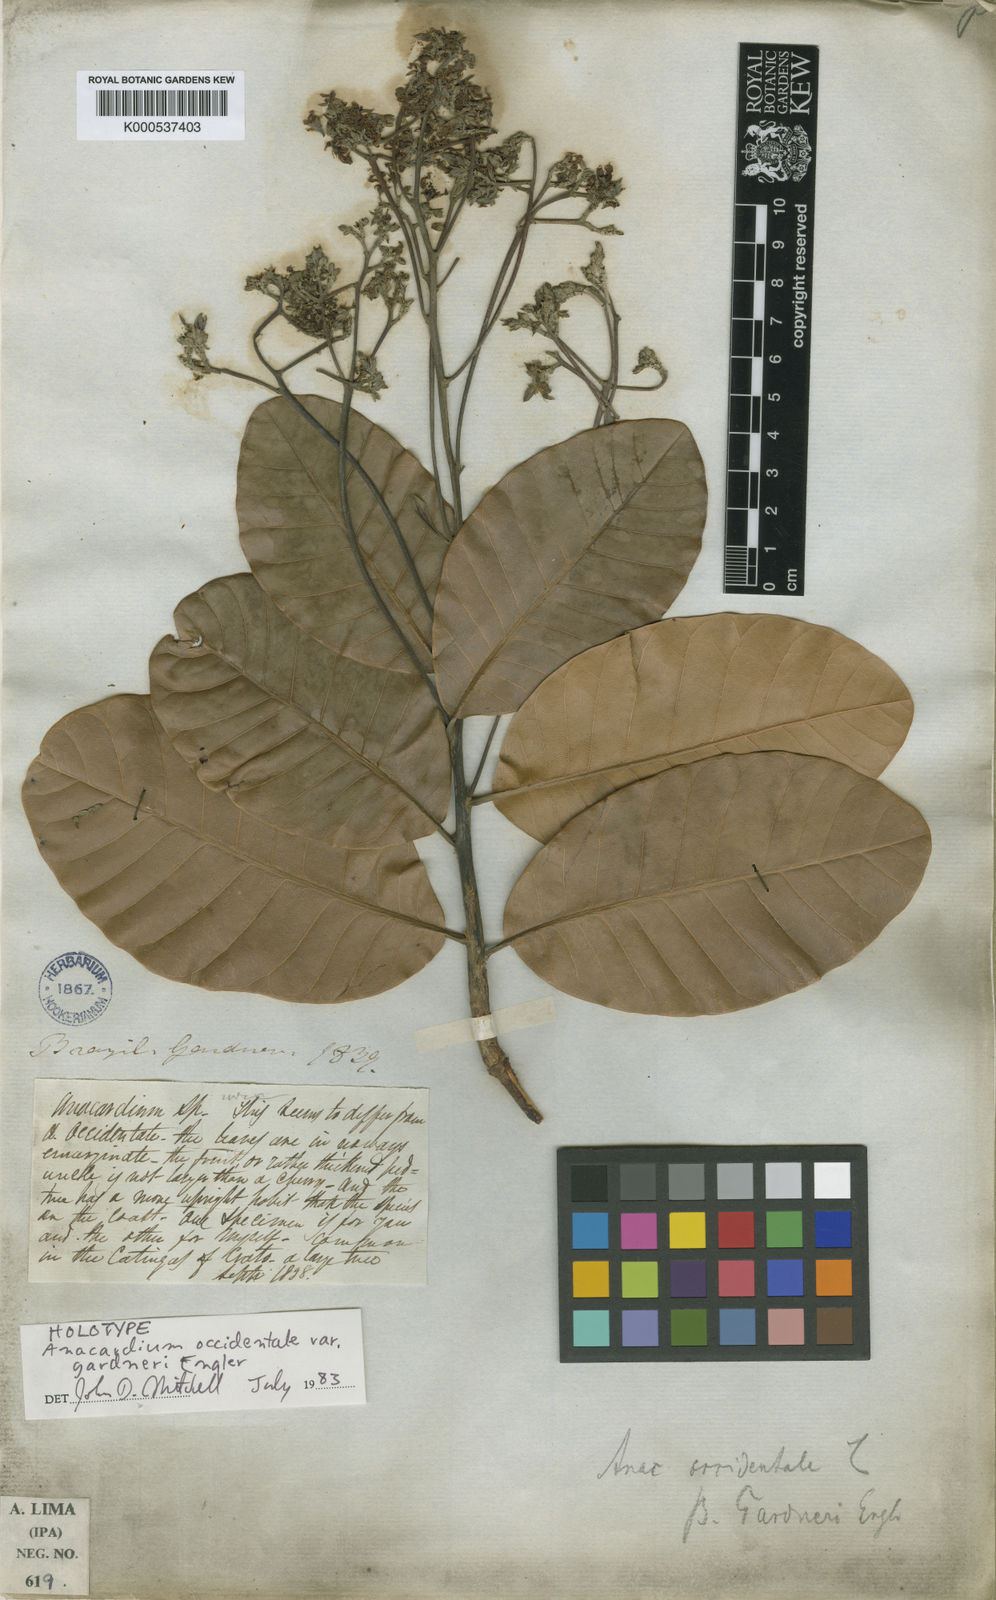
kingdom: Plantae
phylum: Tracheophyta
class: Magnoliopsida
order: Sapindales
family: Anacardiaceae
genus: Anacardium
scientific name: Anacardium occidentale
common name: Cashew
